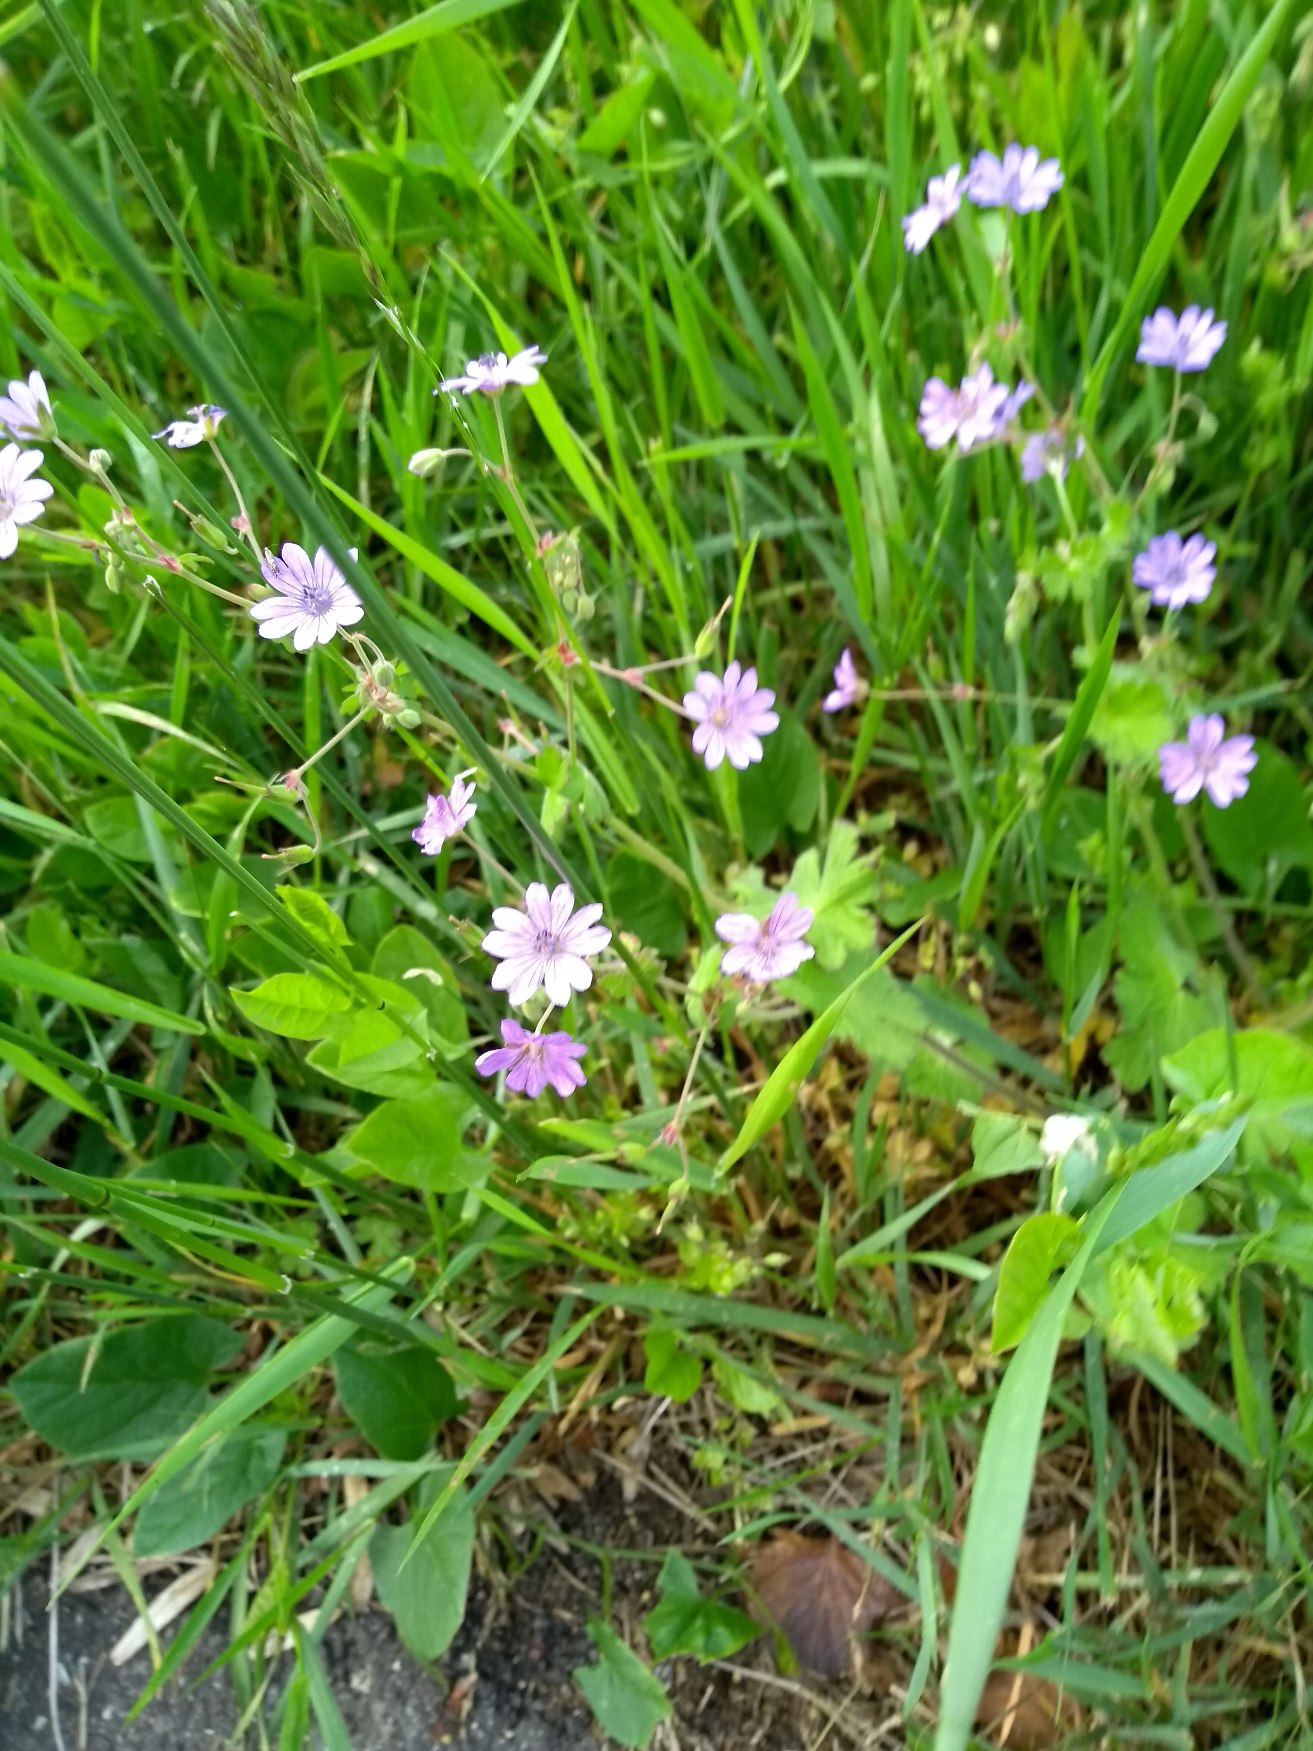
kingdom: Plantae
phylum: Tracheophyta
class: Magnoliopsida
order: Geraniales
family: Geraniaceae
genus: Geranium
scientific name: Geranium pyrenaicum
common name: Pyrenæisk storkenæb
